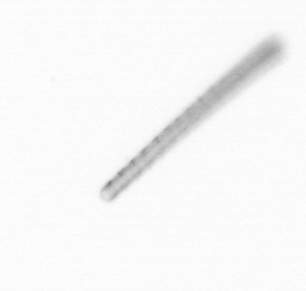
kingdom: Chromista
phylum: Ochrophyta
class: Bacillariophyceae
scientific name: Bacillariophyceae
